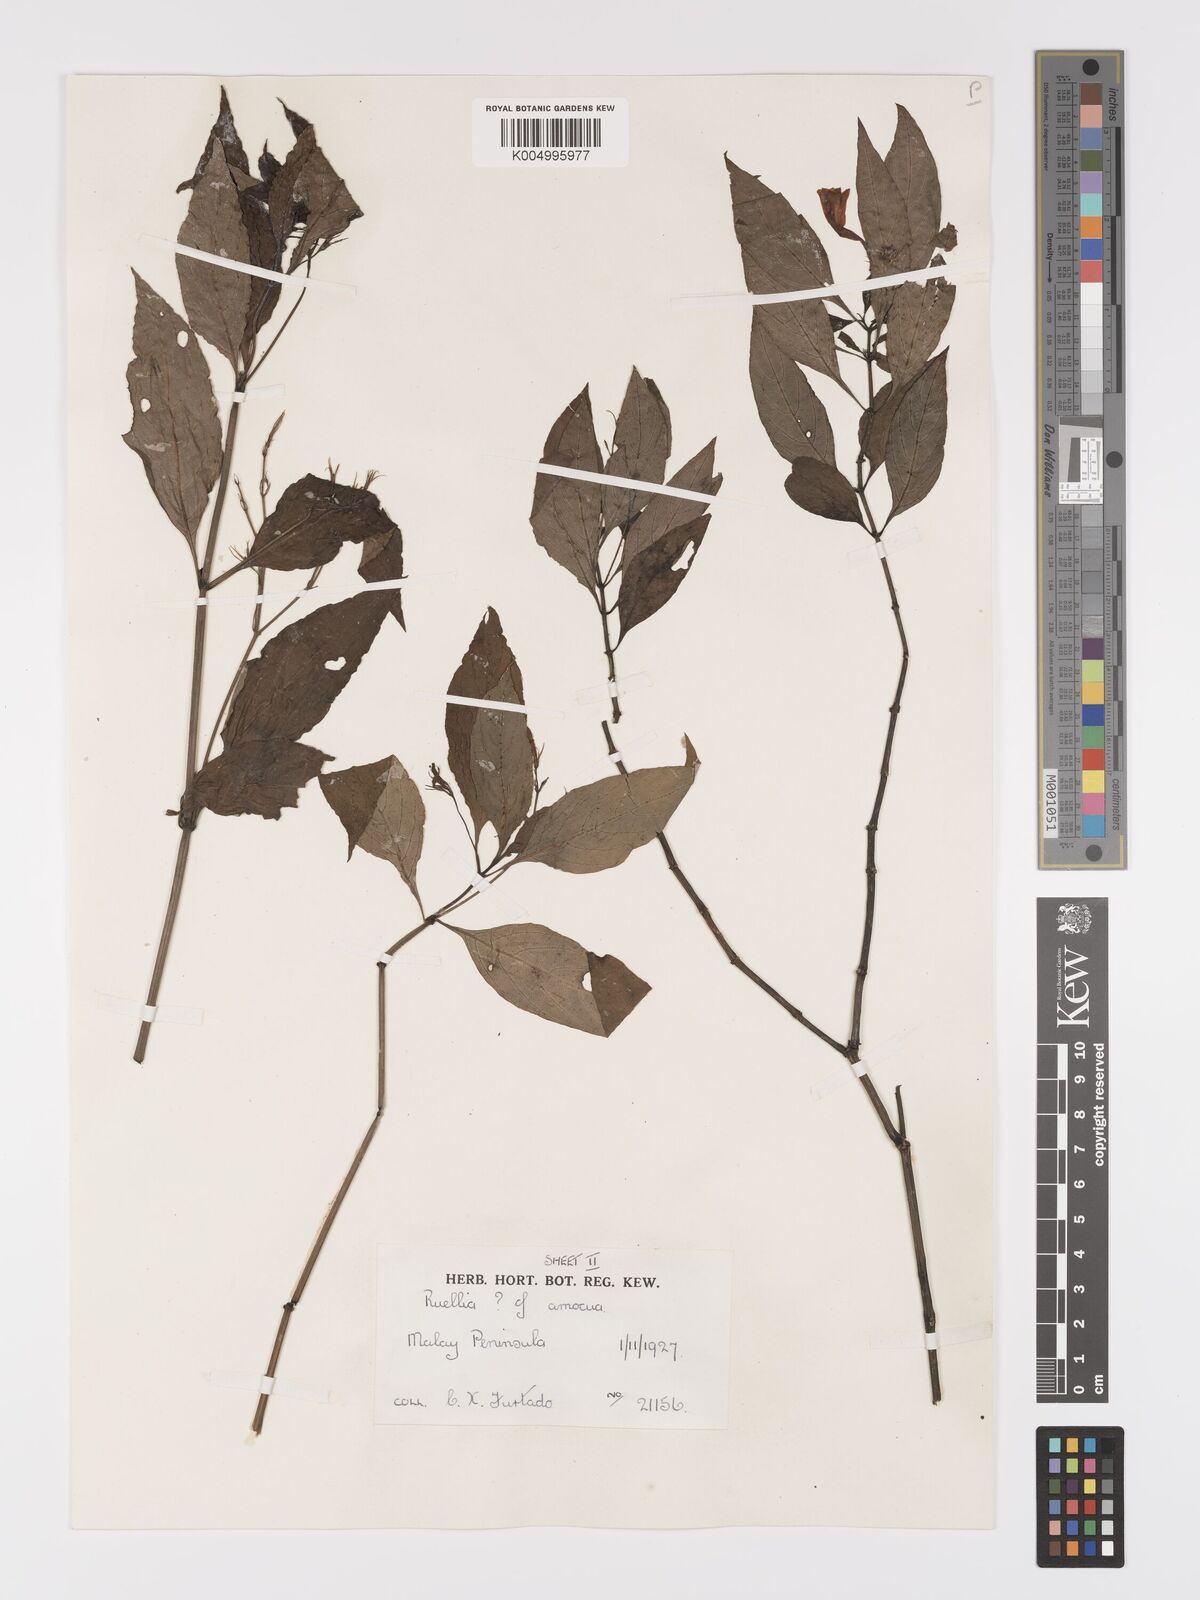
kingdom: Plantae
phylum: Tracheophyta
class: Magnoliopsida
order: Lamiales
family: Acanthaceae
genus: Ruellia
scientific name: Ruellia amoena
